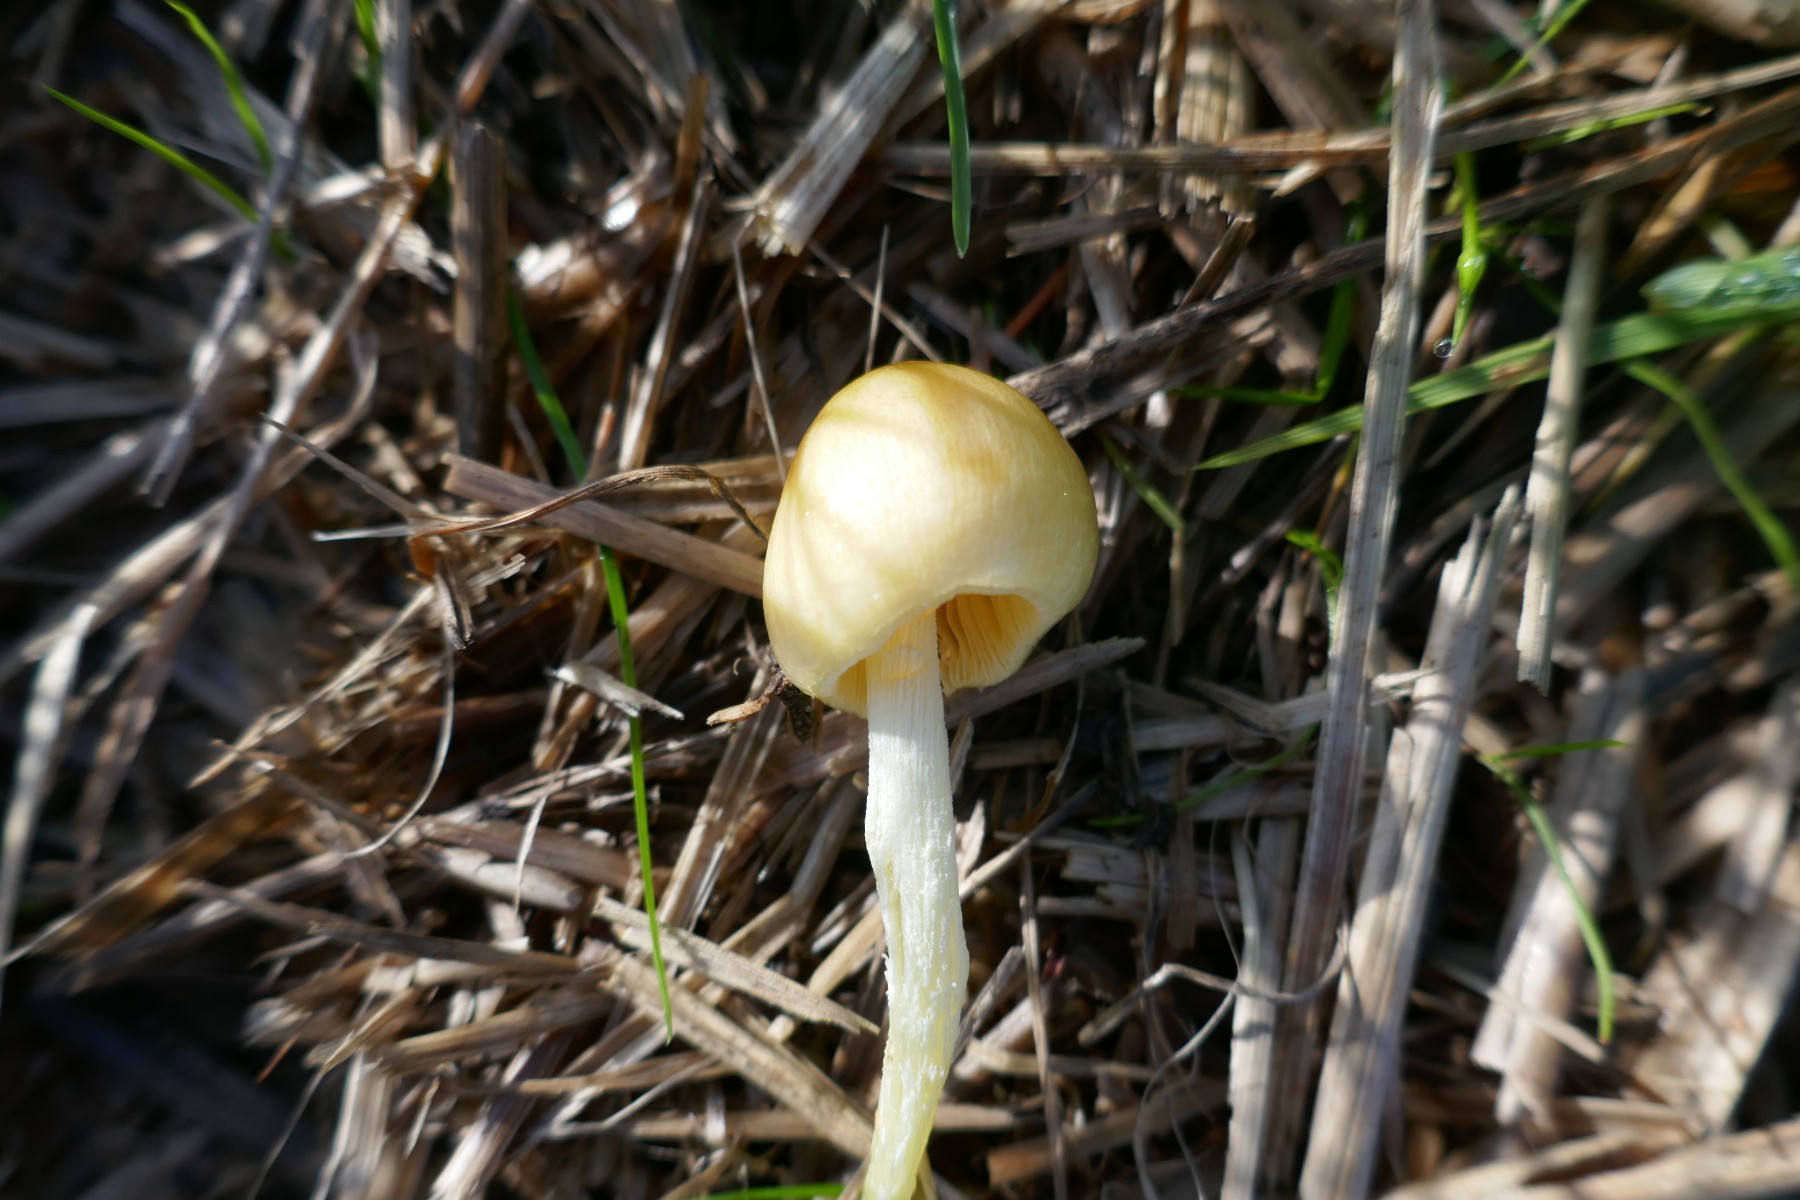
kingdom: Fungi
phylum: Basidiomycota
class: Agaricomycetes
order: Agaricales
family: Bolbitiaceae
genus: Bolbitius
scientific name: Bolbitius titubans
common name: almindelig gulhat
